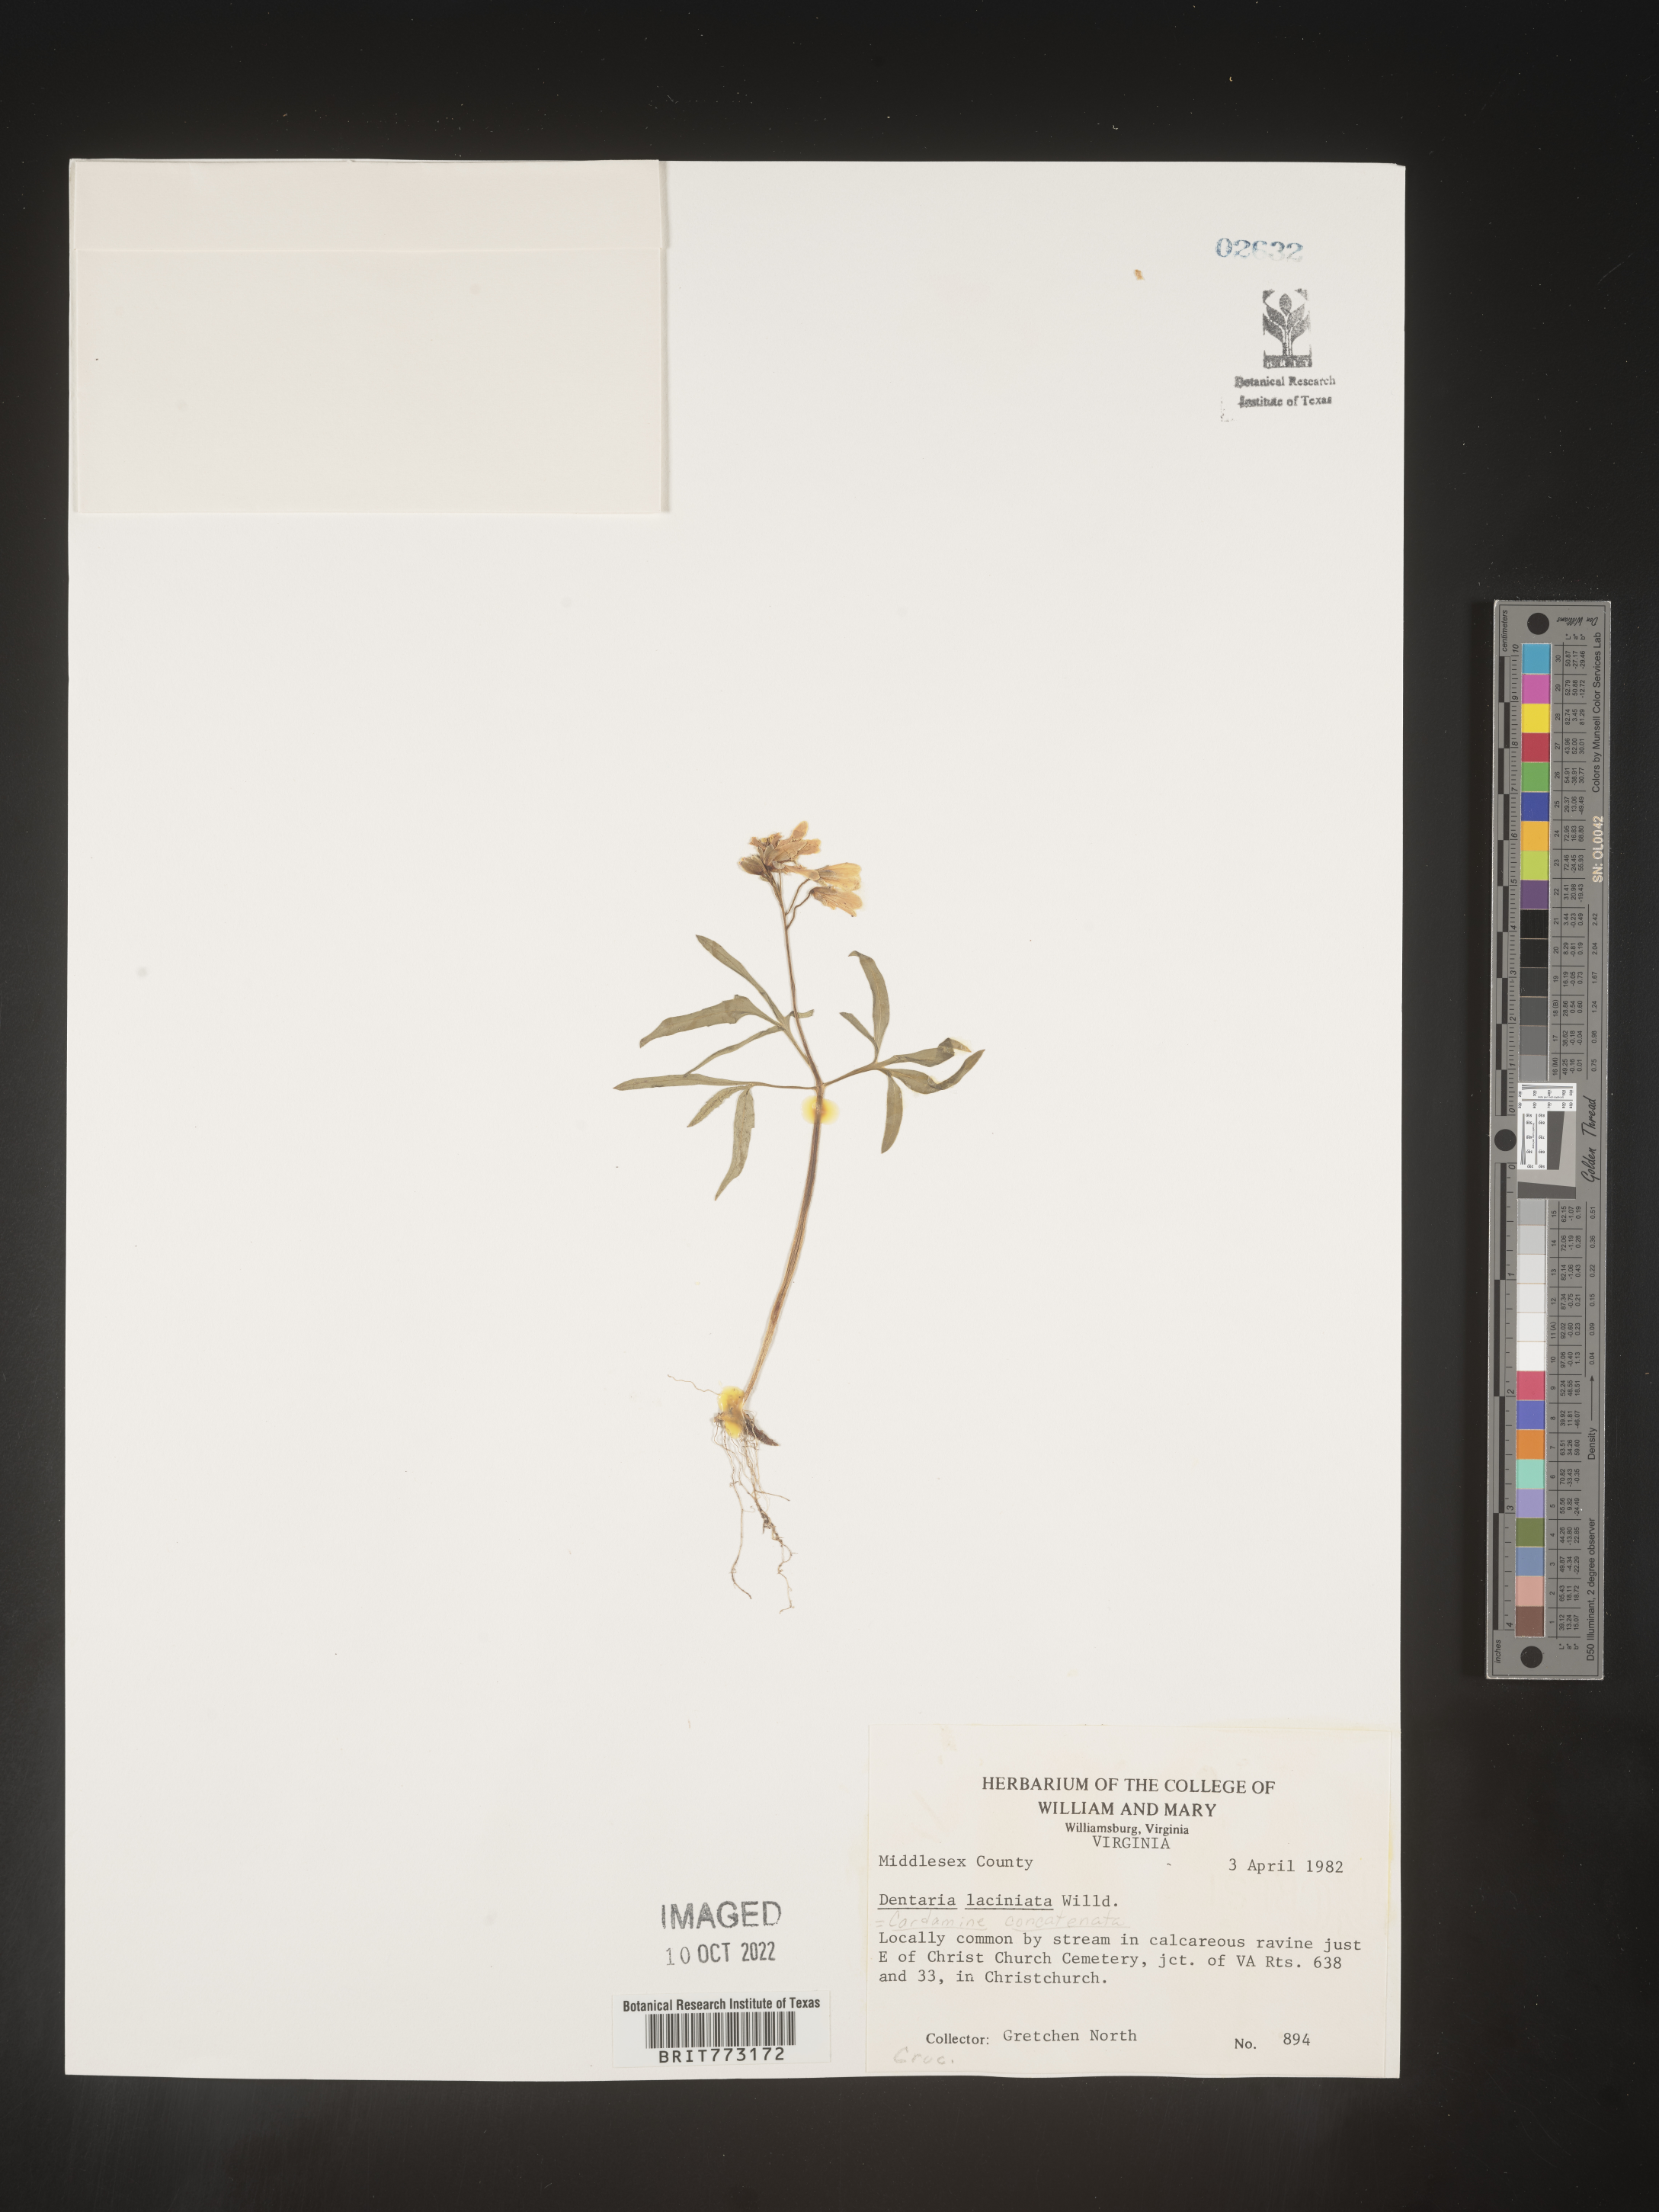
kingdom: Plantae
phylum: Tracheophyta
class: Magnoliopsida
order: Brassicales
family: Brassicaceae
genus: Cardamine
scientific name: Cardamine
